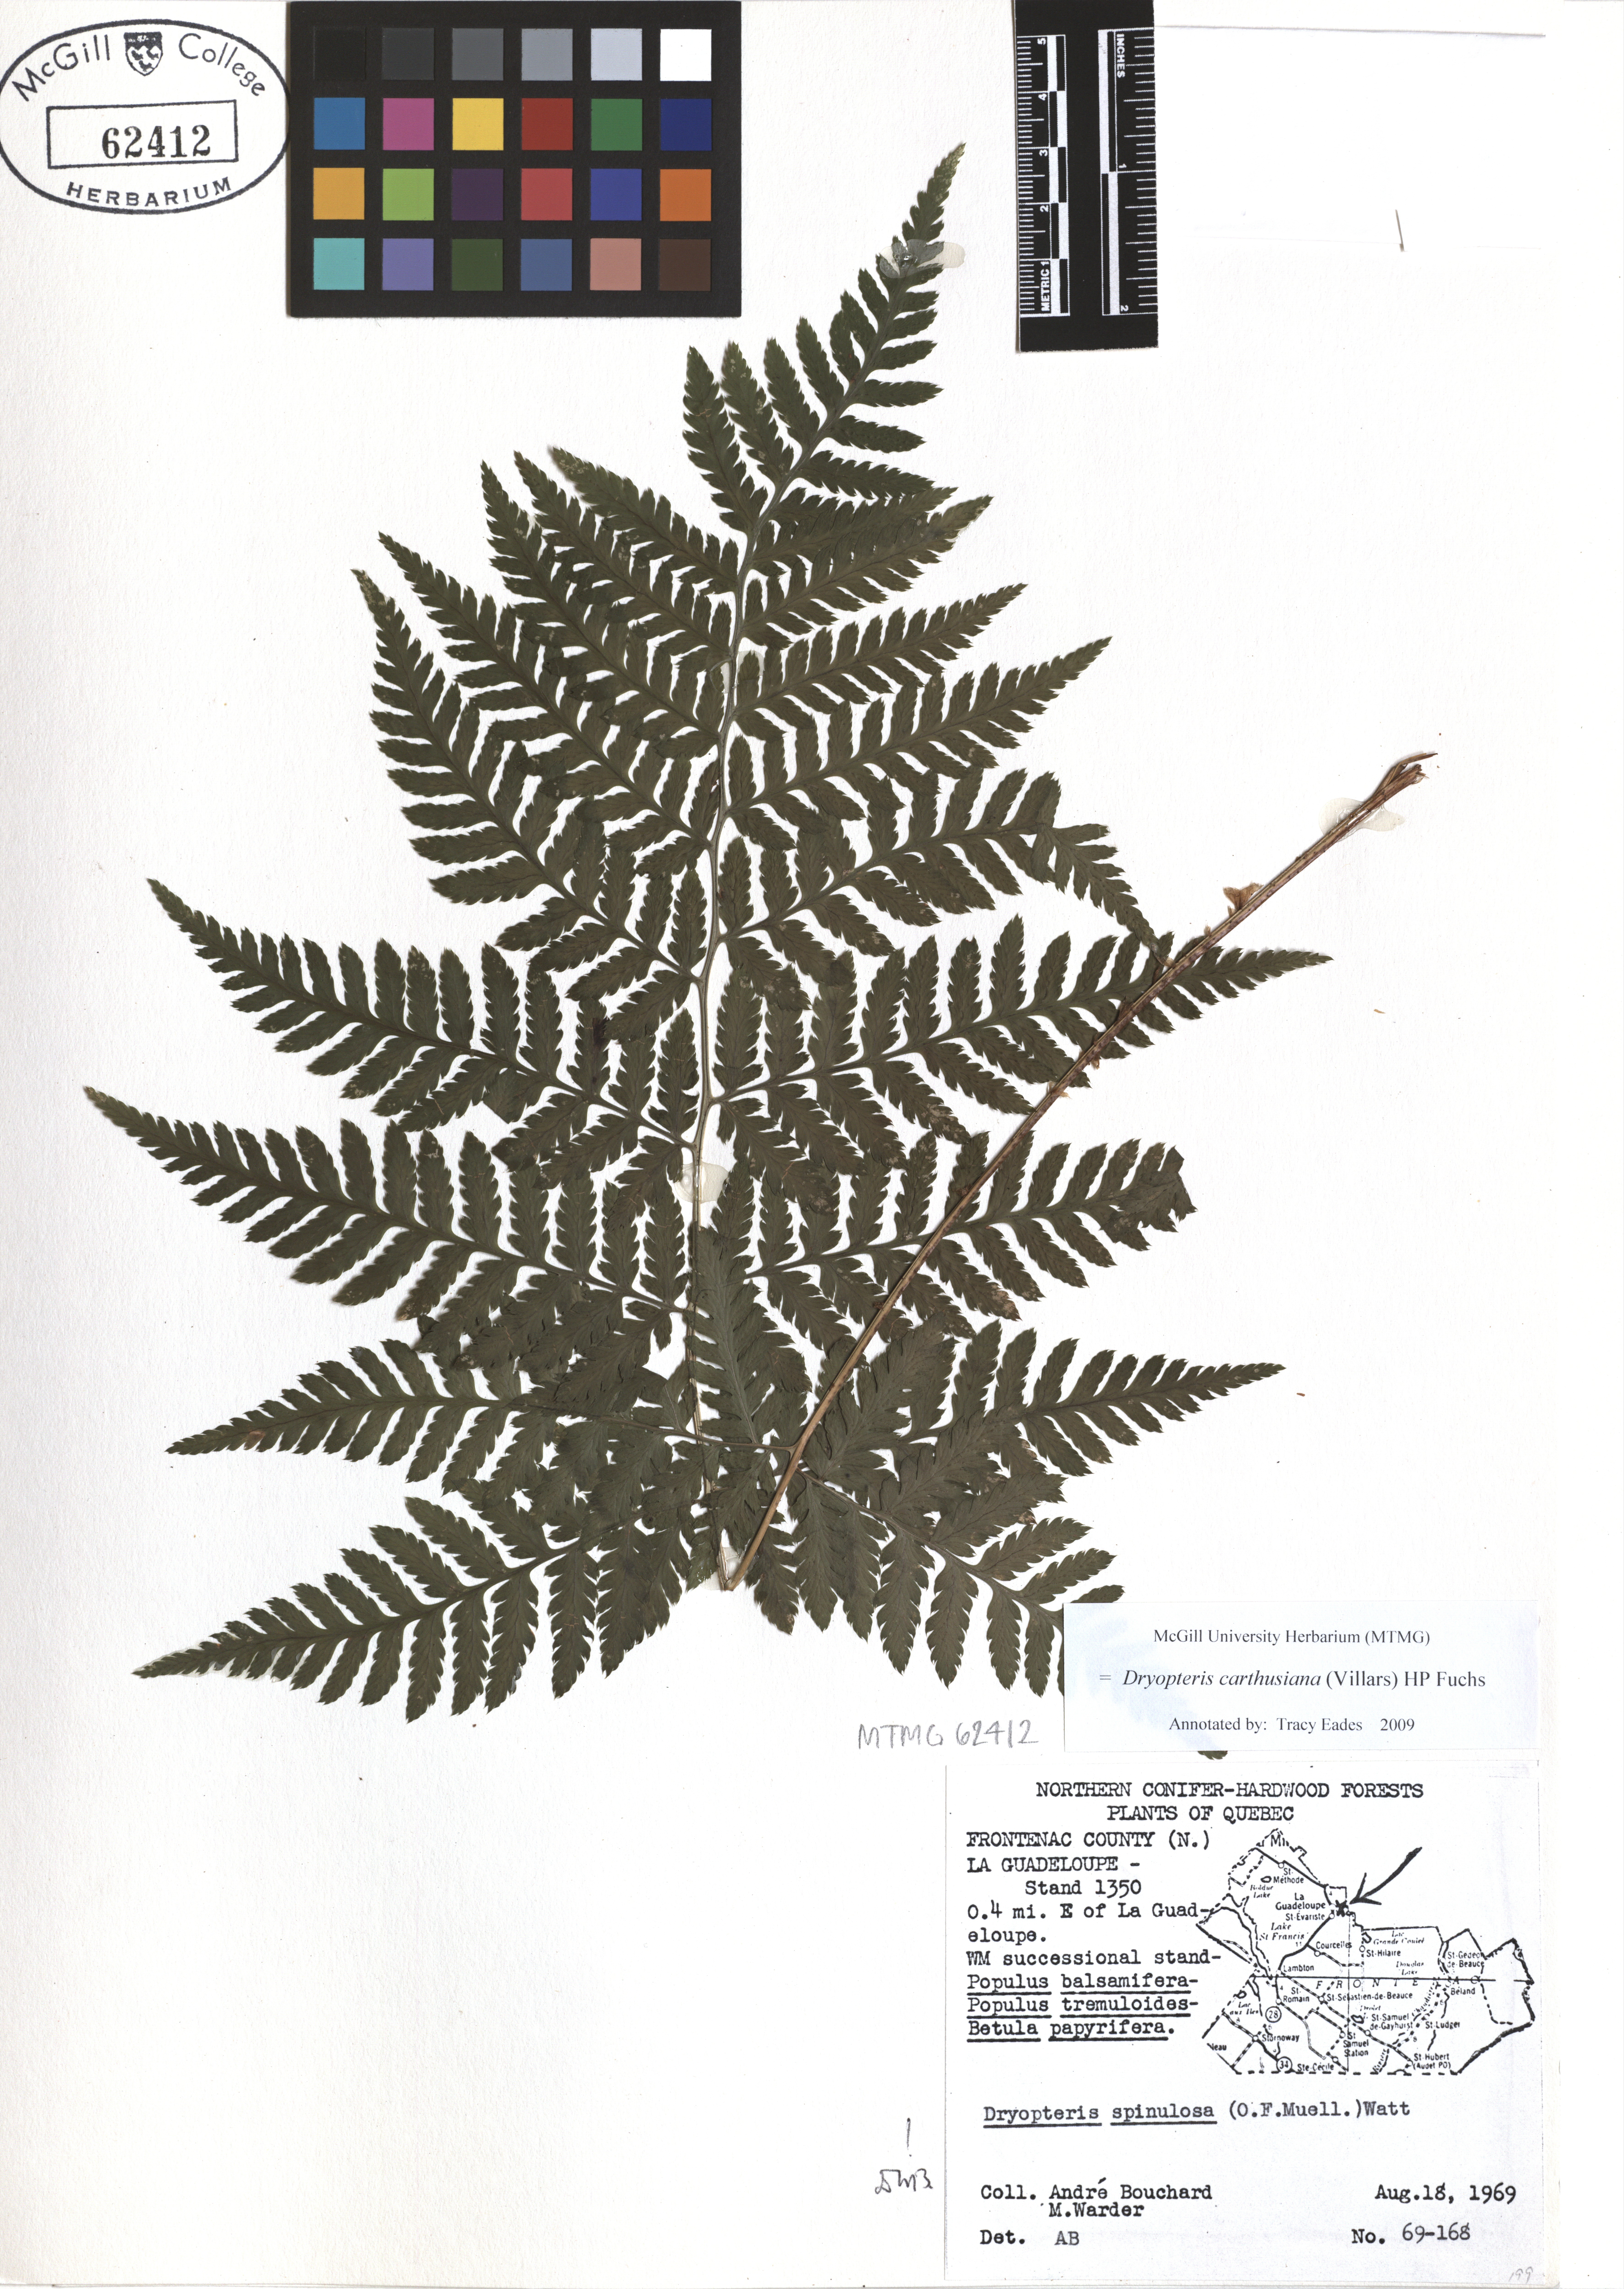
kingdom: Plantae
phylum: Tracheophyta
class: Polypodiopsida
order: Polypodiales
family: Dryopteridaceae
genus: Dryopteris
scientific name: Dryopteris carthusiana
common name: Narrow buckler-fern
